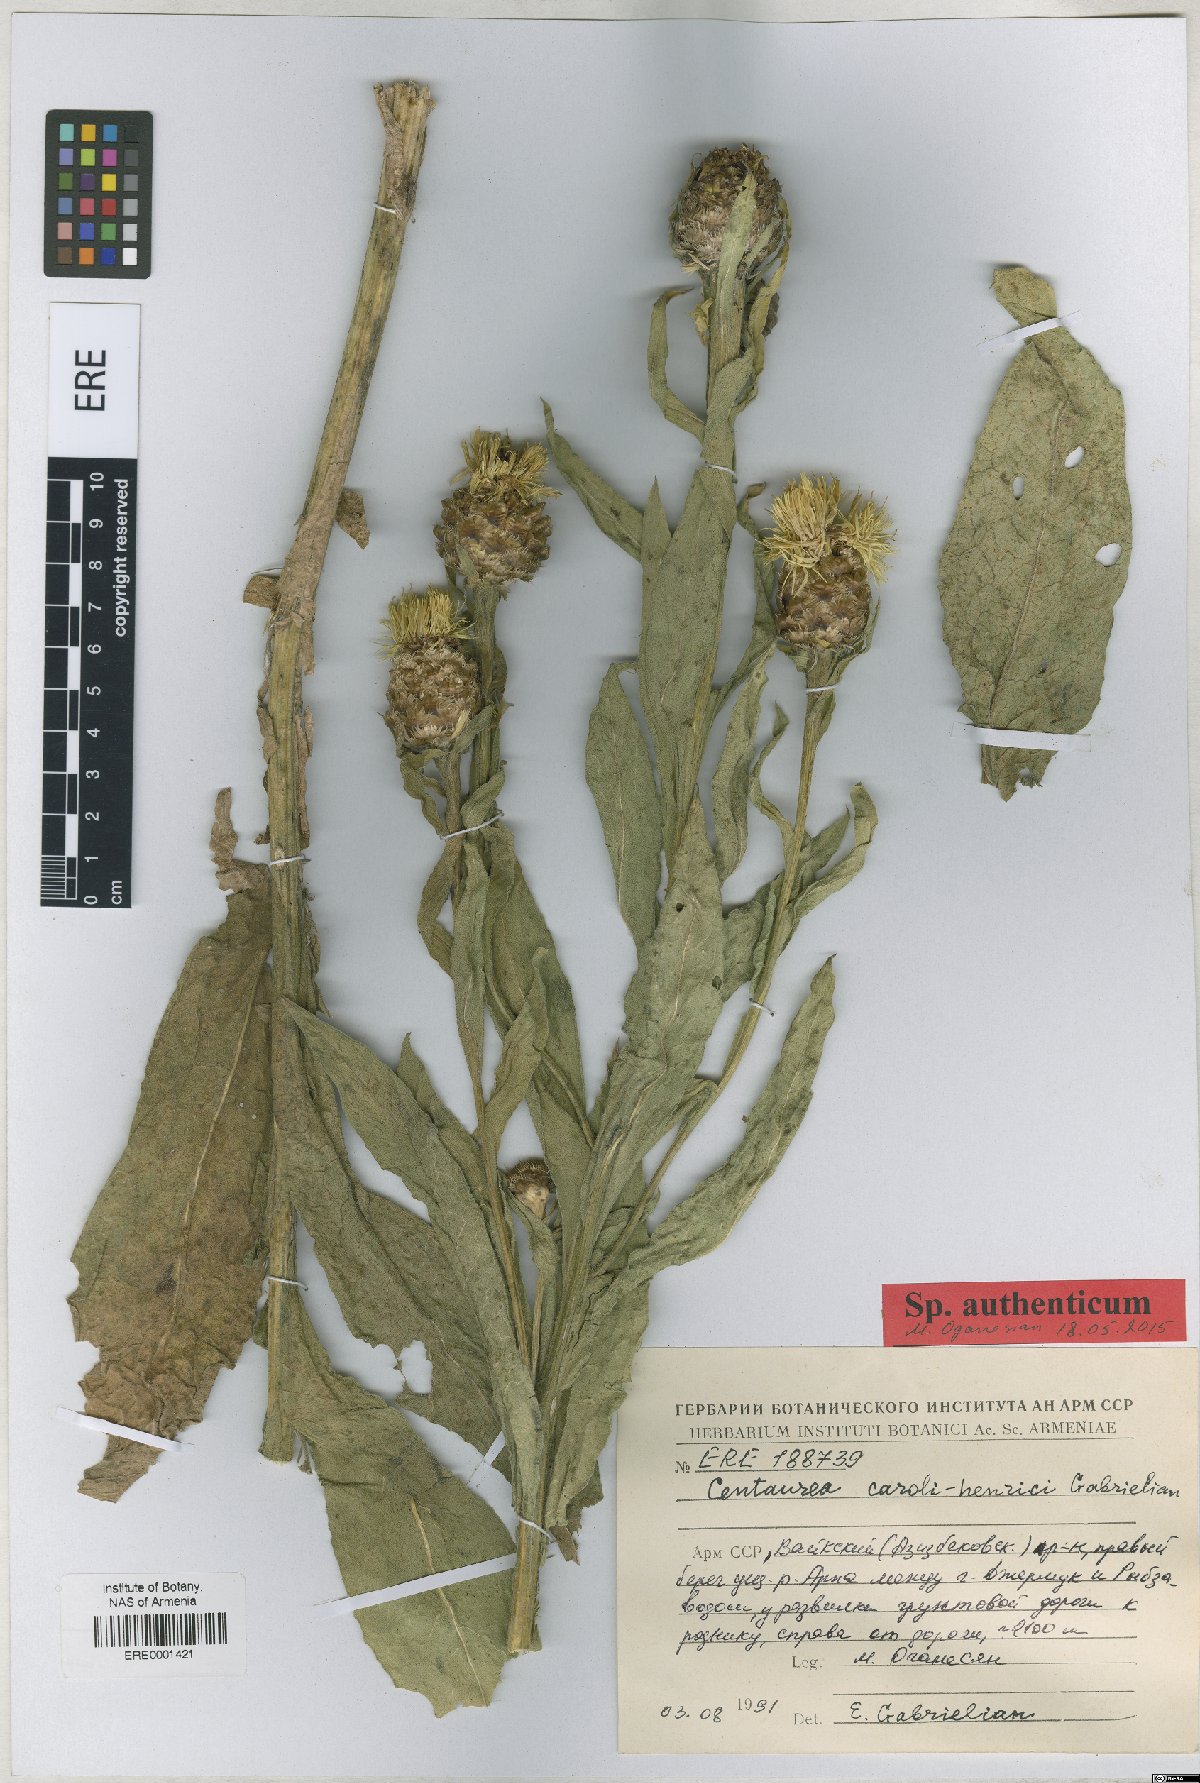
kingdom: Plantae
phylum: Tracheophyta
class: Magnoliopsida
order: Asterales
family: Asteraceae
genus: Centaurea
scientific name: Centaurea caroli-henrici
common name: Karl-henrikh's centaury
